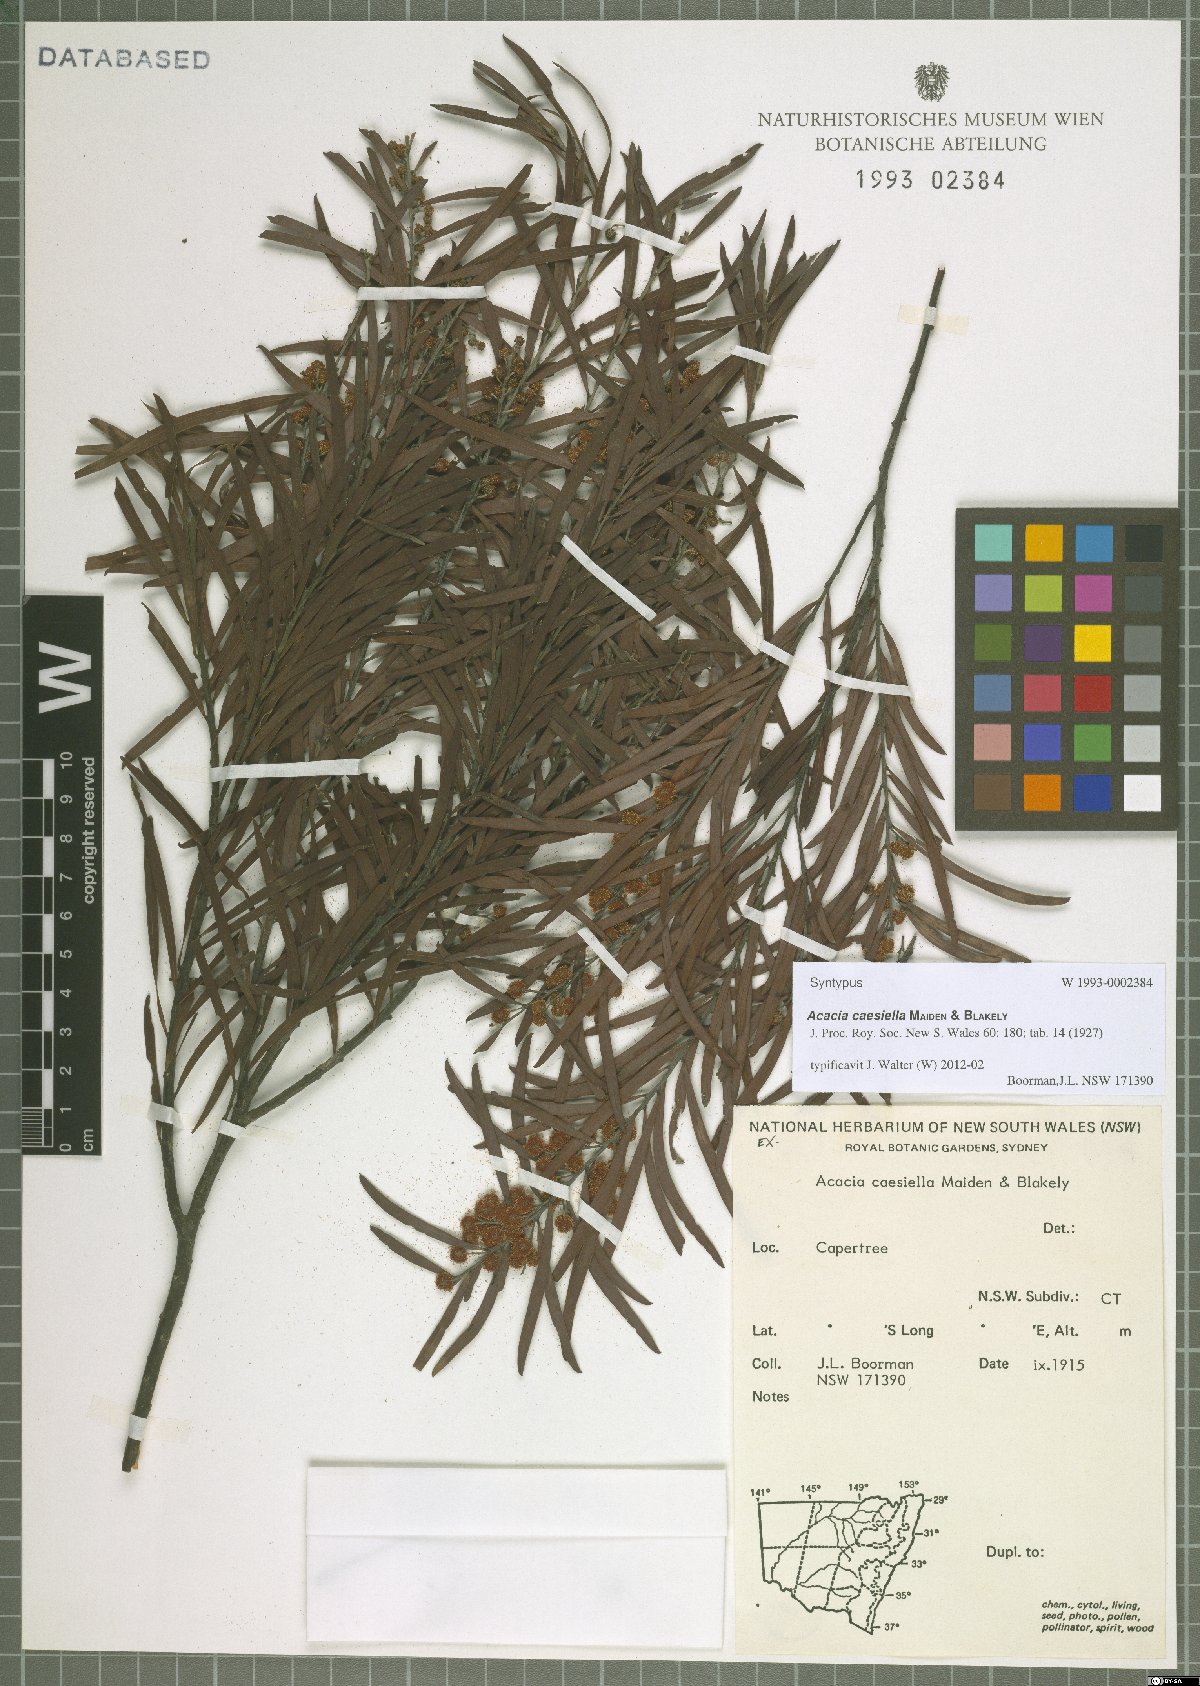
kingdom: Plantae
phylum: Tracheophyta
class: Magnoliopsida
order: Fabales
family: Fabaceae
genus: Acacia
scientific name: Acacia caesiella
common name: Tableland wattle
